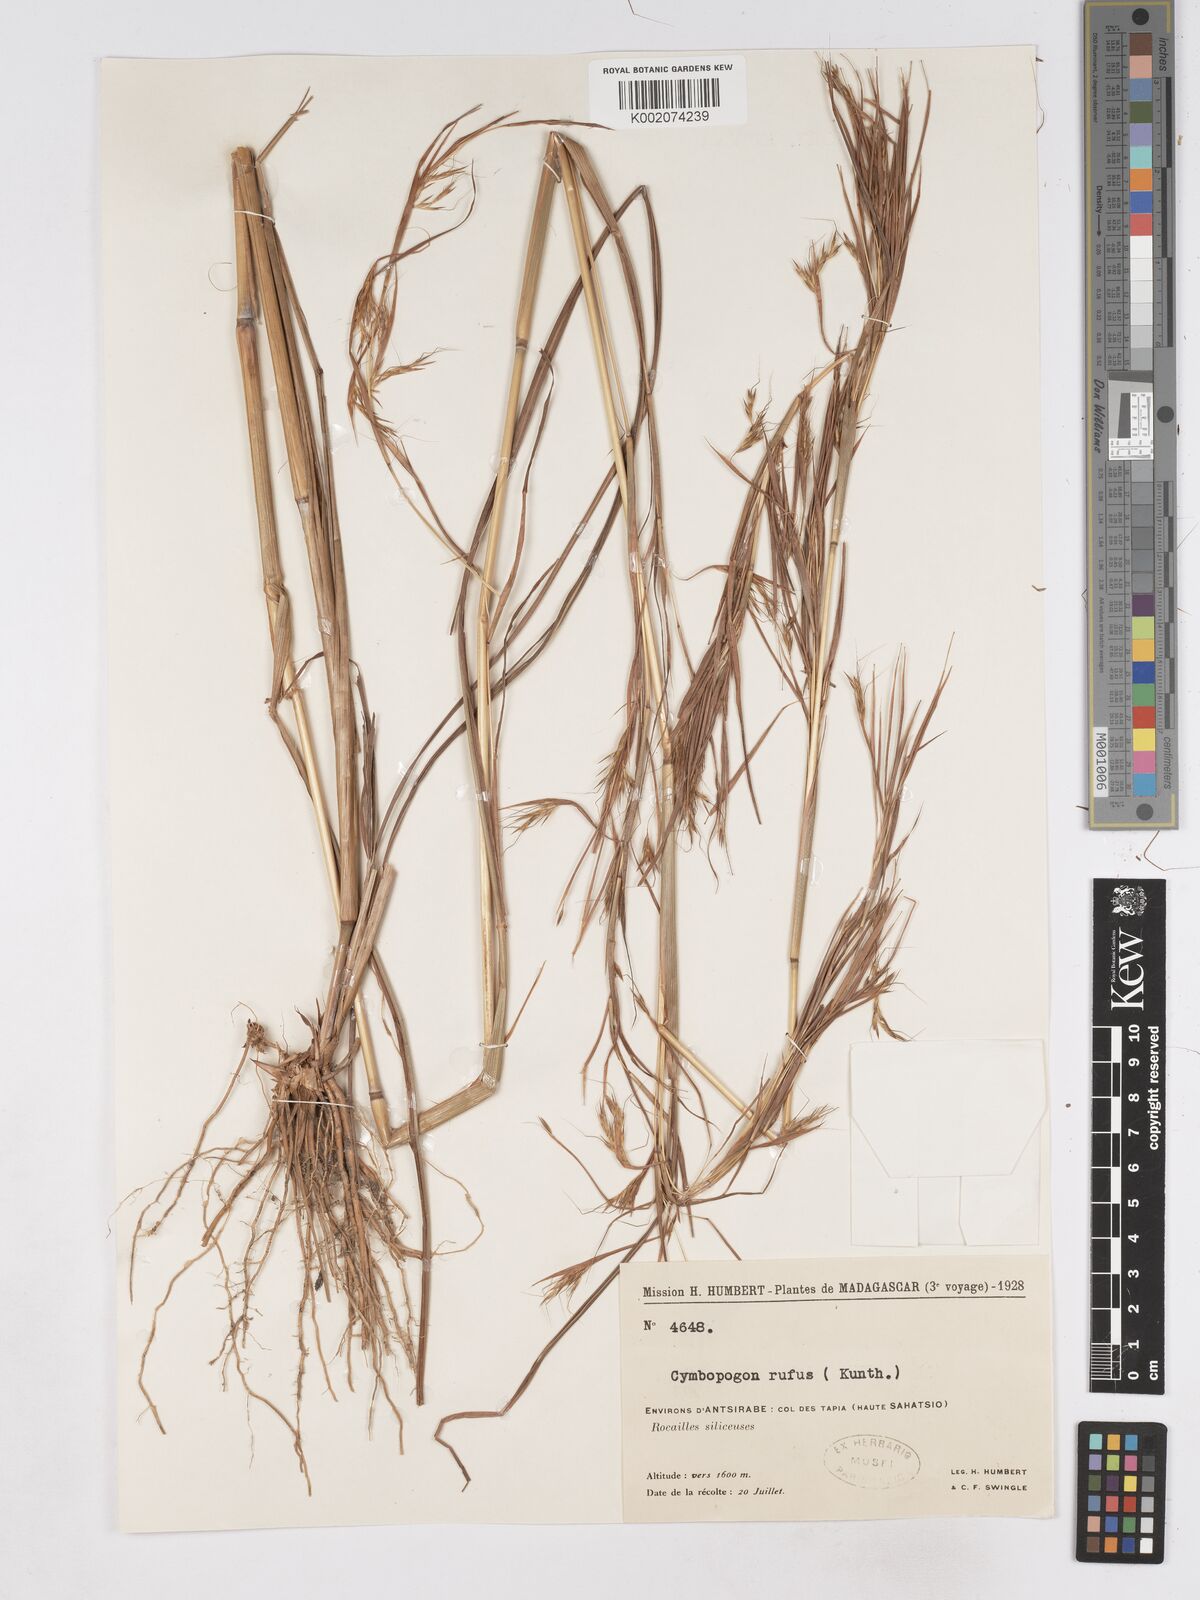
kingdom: Plantae
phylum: Tracheophyta
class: Liliopsida
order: Poales
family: Poaceae
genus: Hyparrhenia
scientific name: Hyparrhenia rufa
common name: Jaraguagrass
